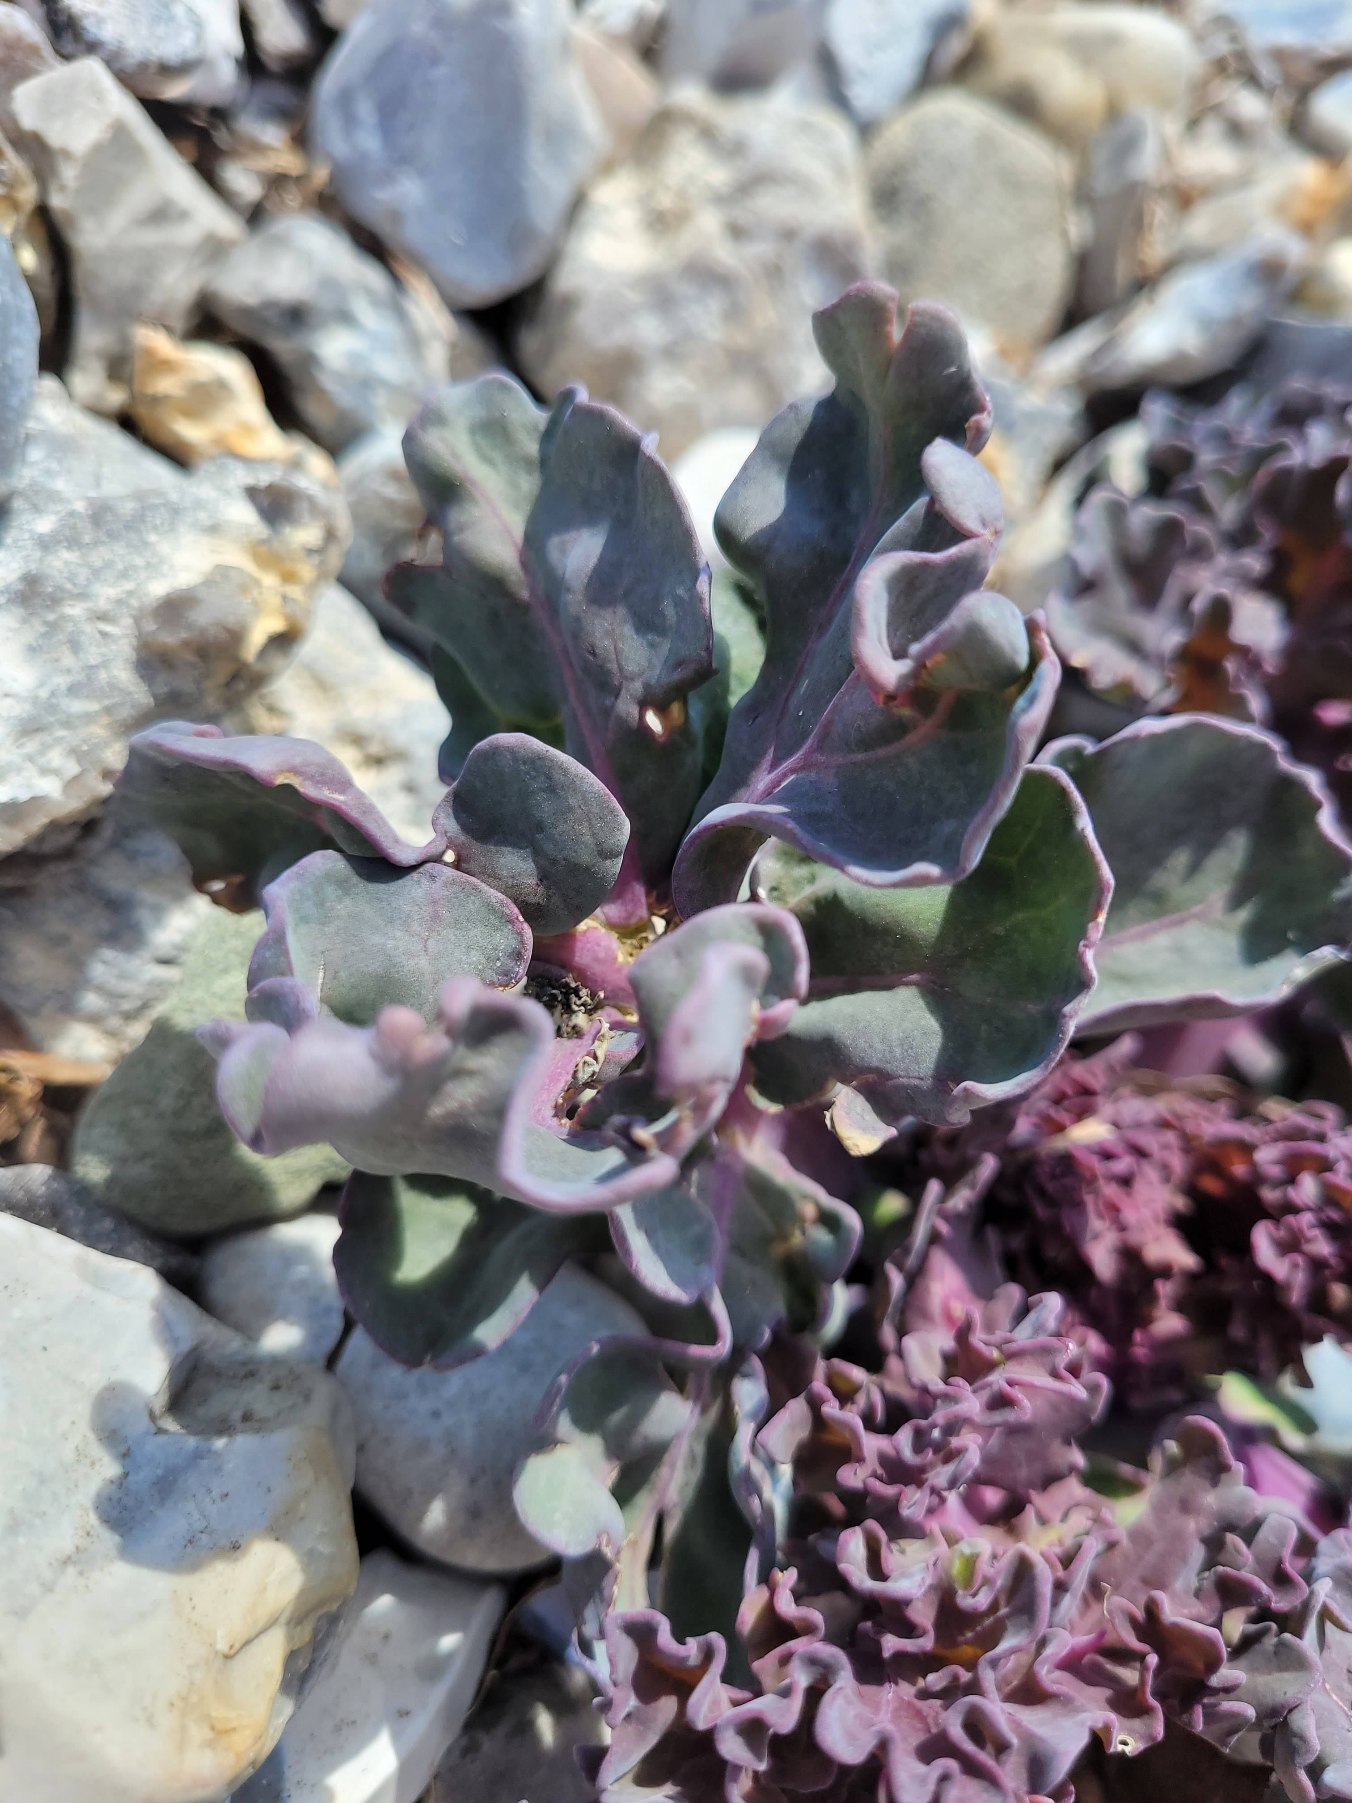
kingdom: Plantae
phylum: Tracheophyta
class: Magnoliopsida
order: Brassicales
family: Brassicaceae
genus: Crambe
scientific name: Crambe maritima
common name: Strandkål
